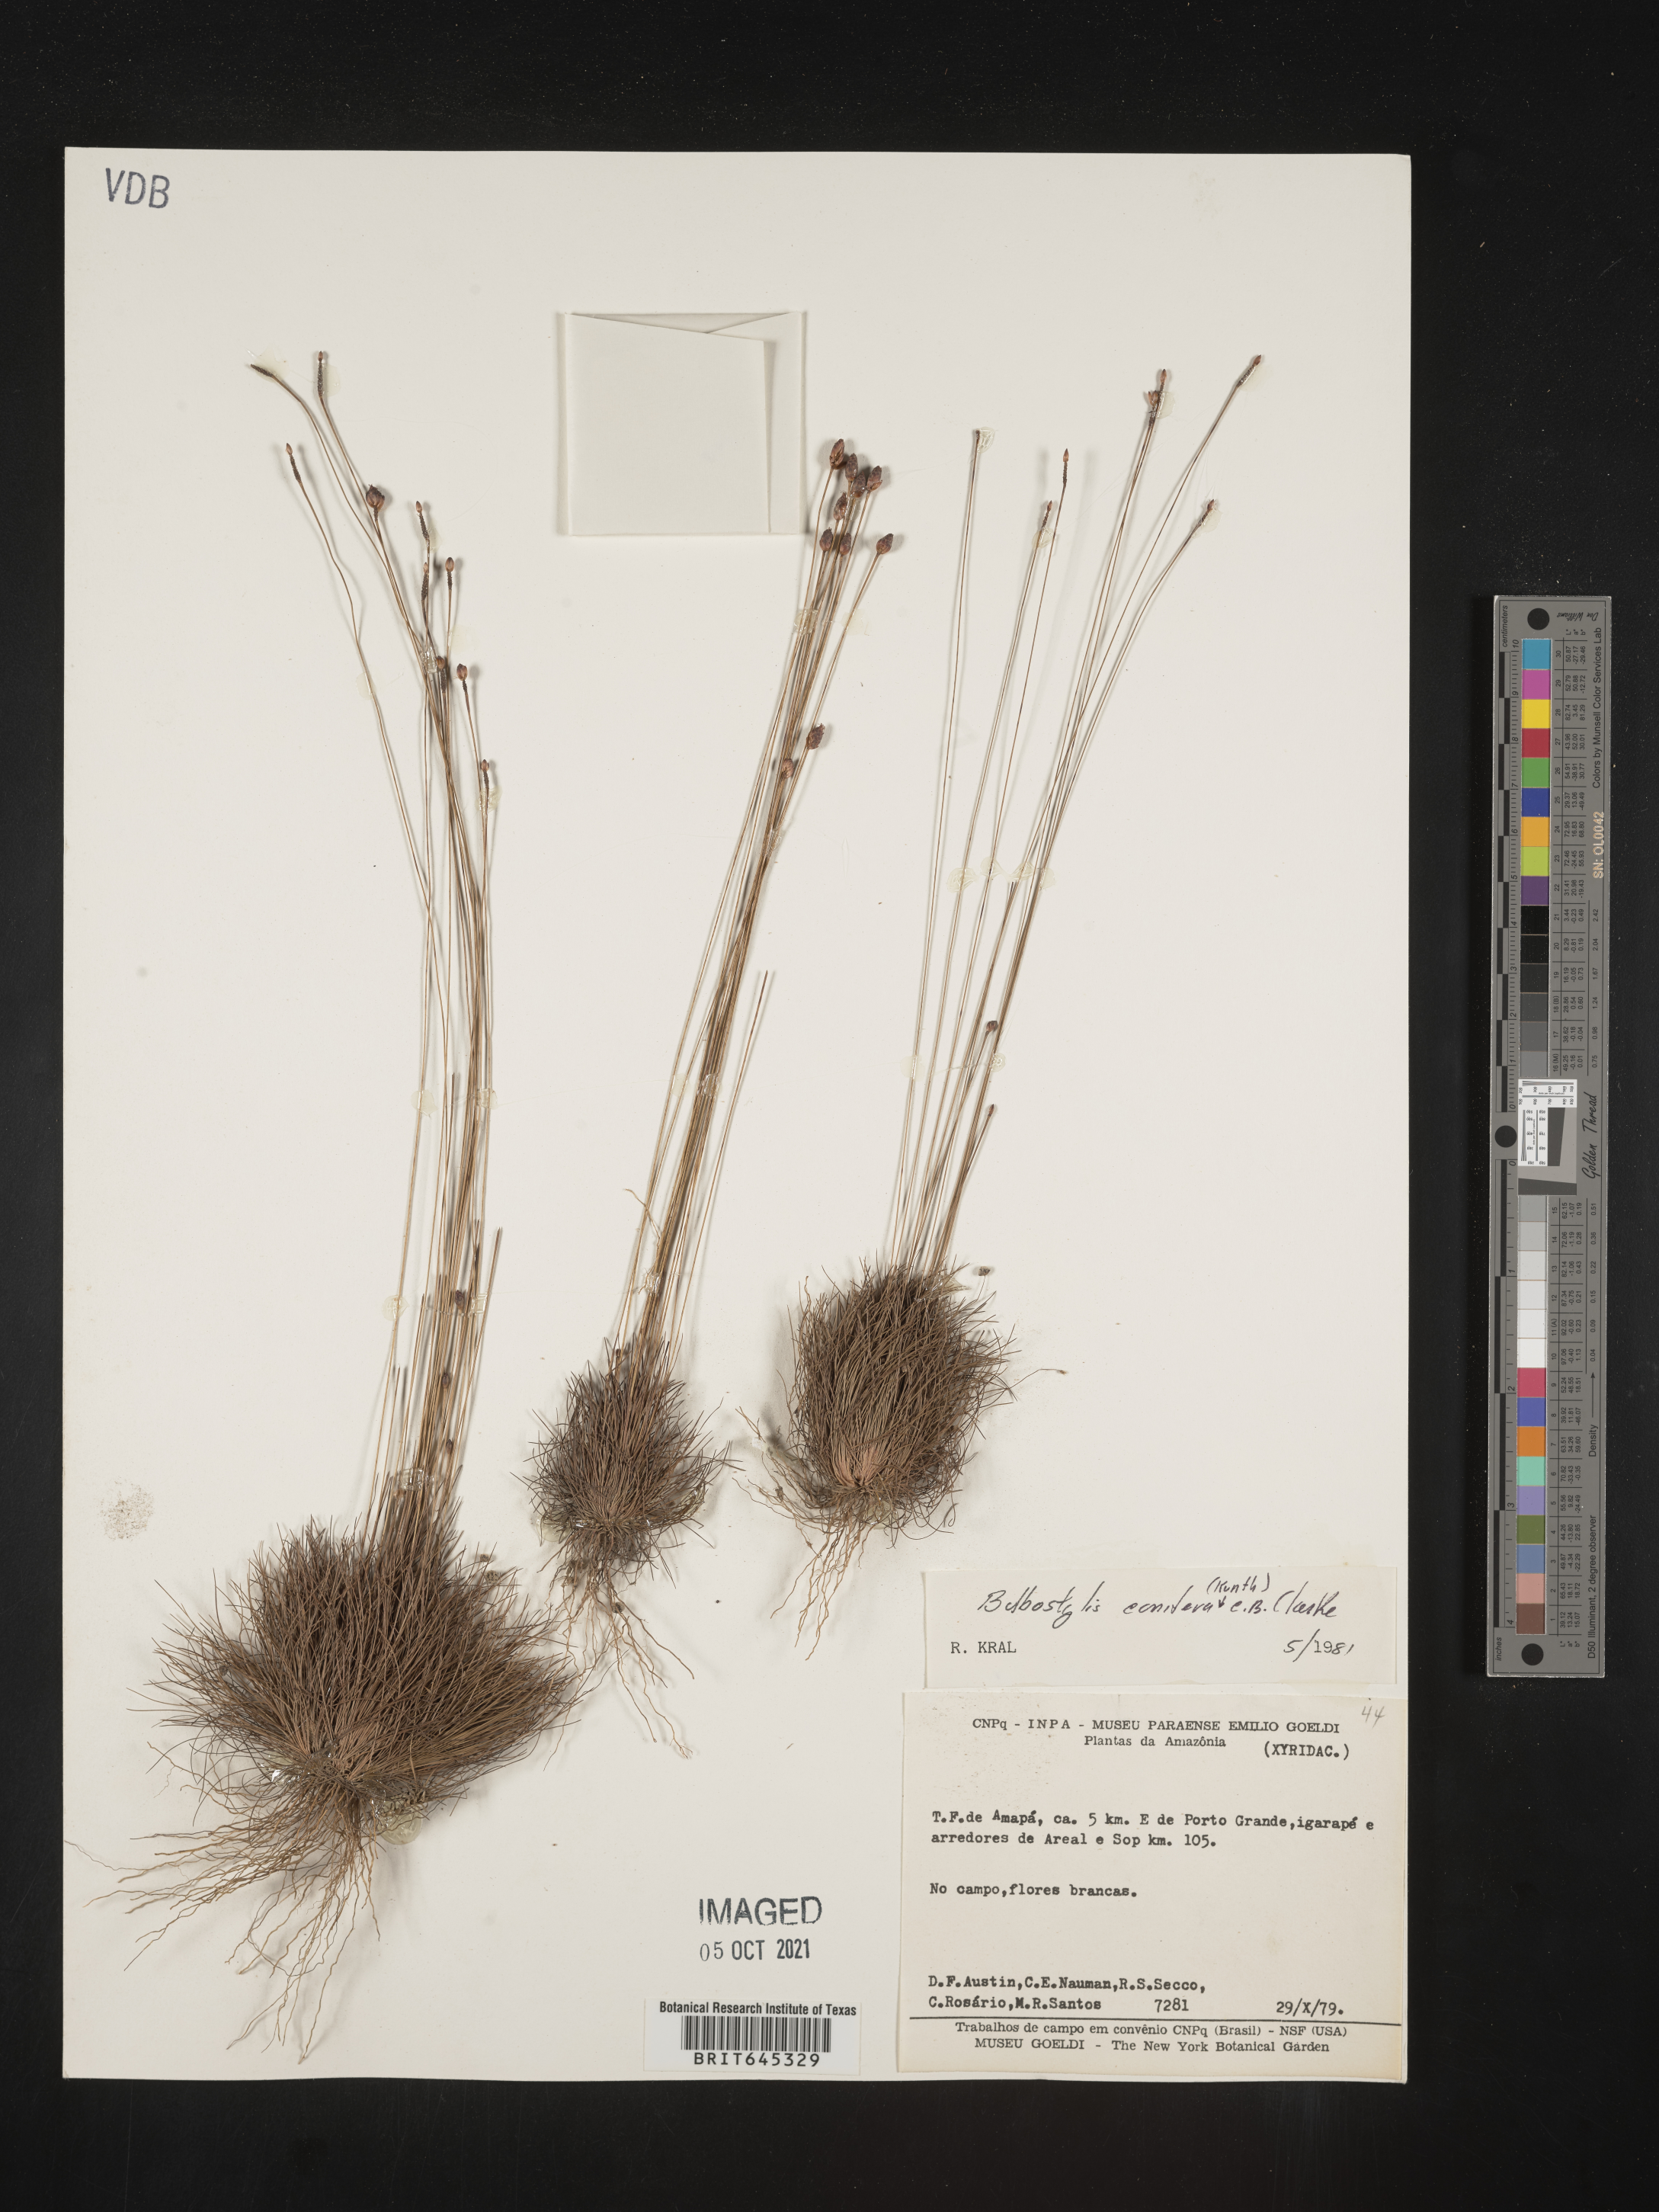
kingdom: Plantae
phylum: Tracheophyta
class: Liliopsida
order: Poales
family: Cyperaceae
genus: Bulbostylis
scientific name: Bulbostylis conifera
